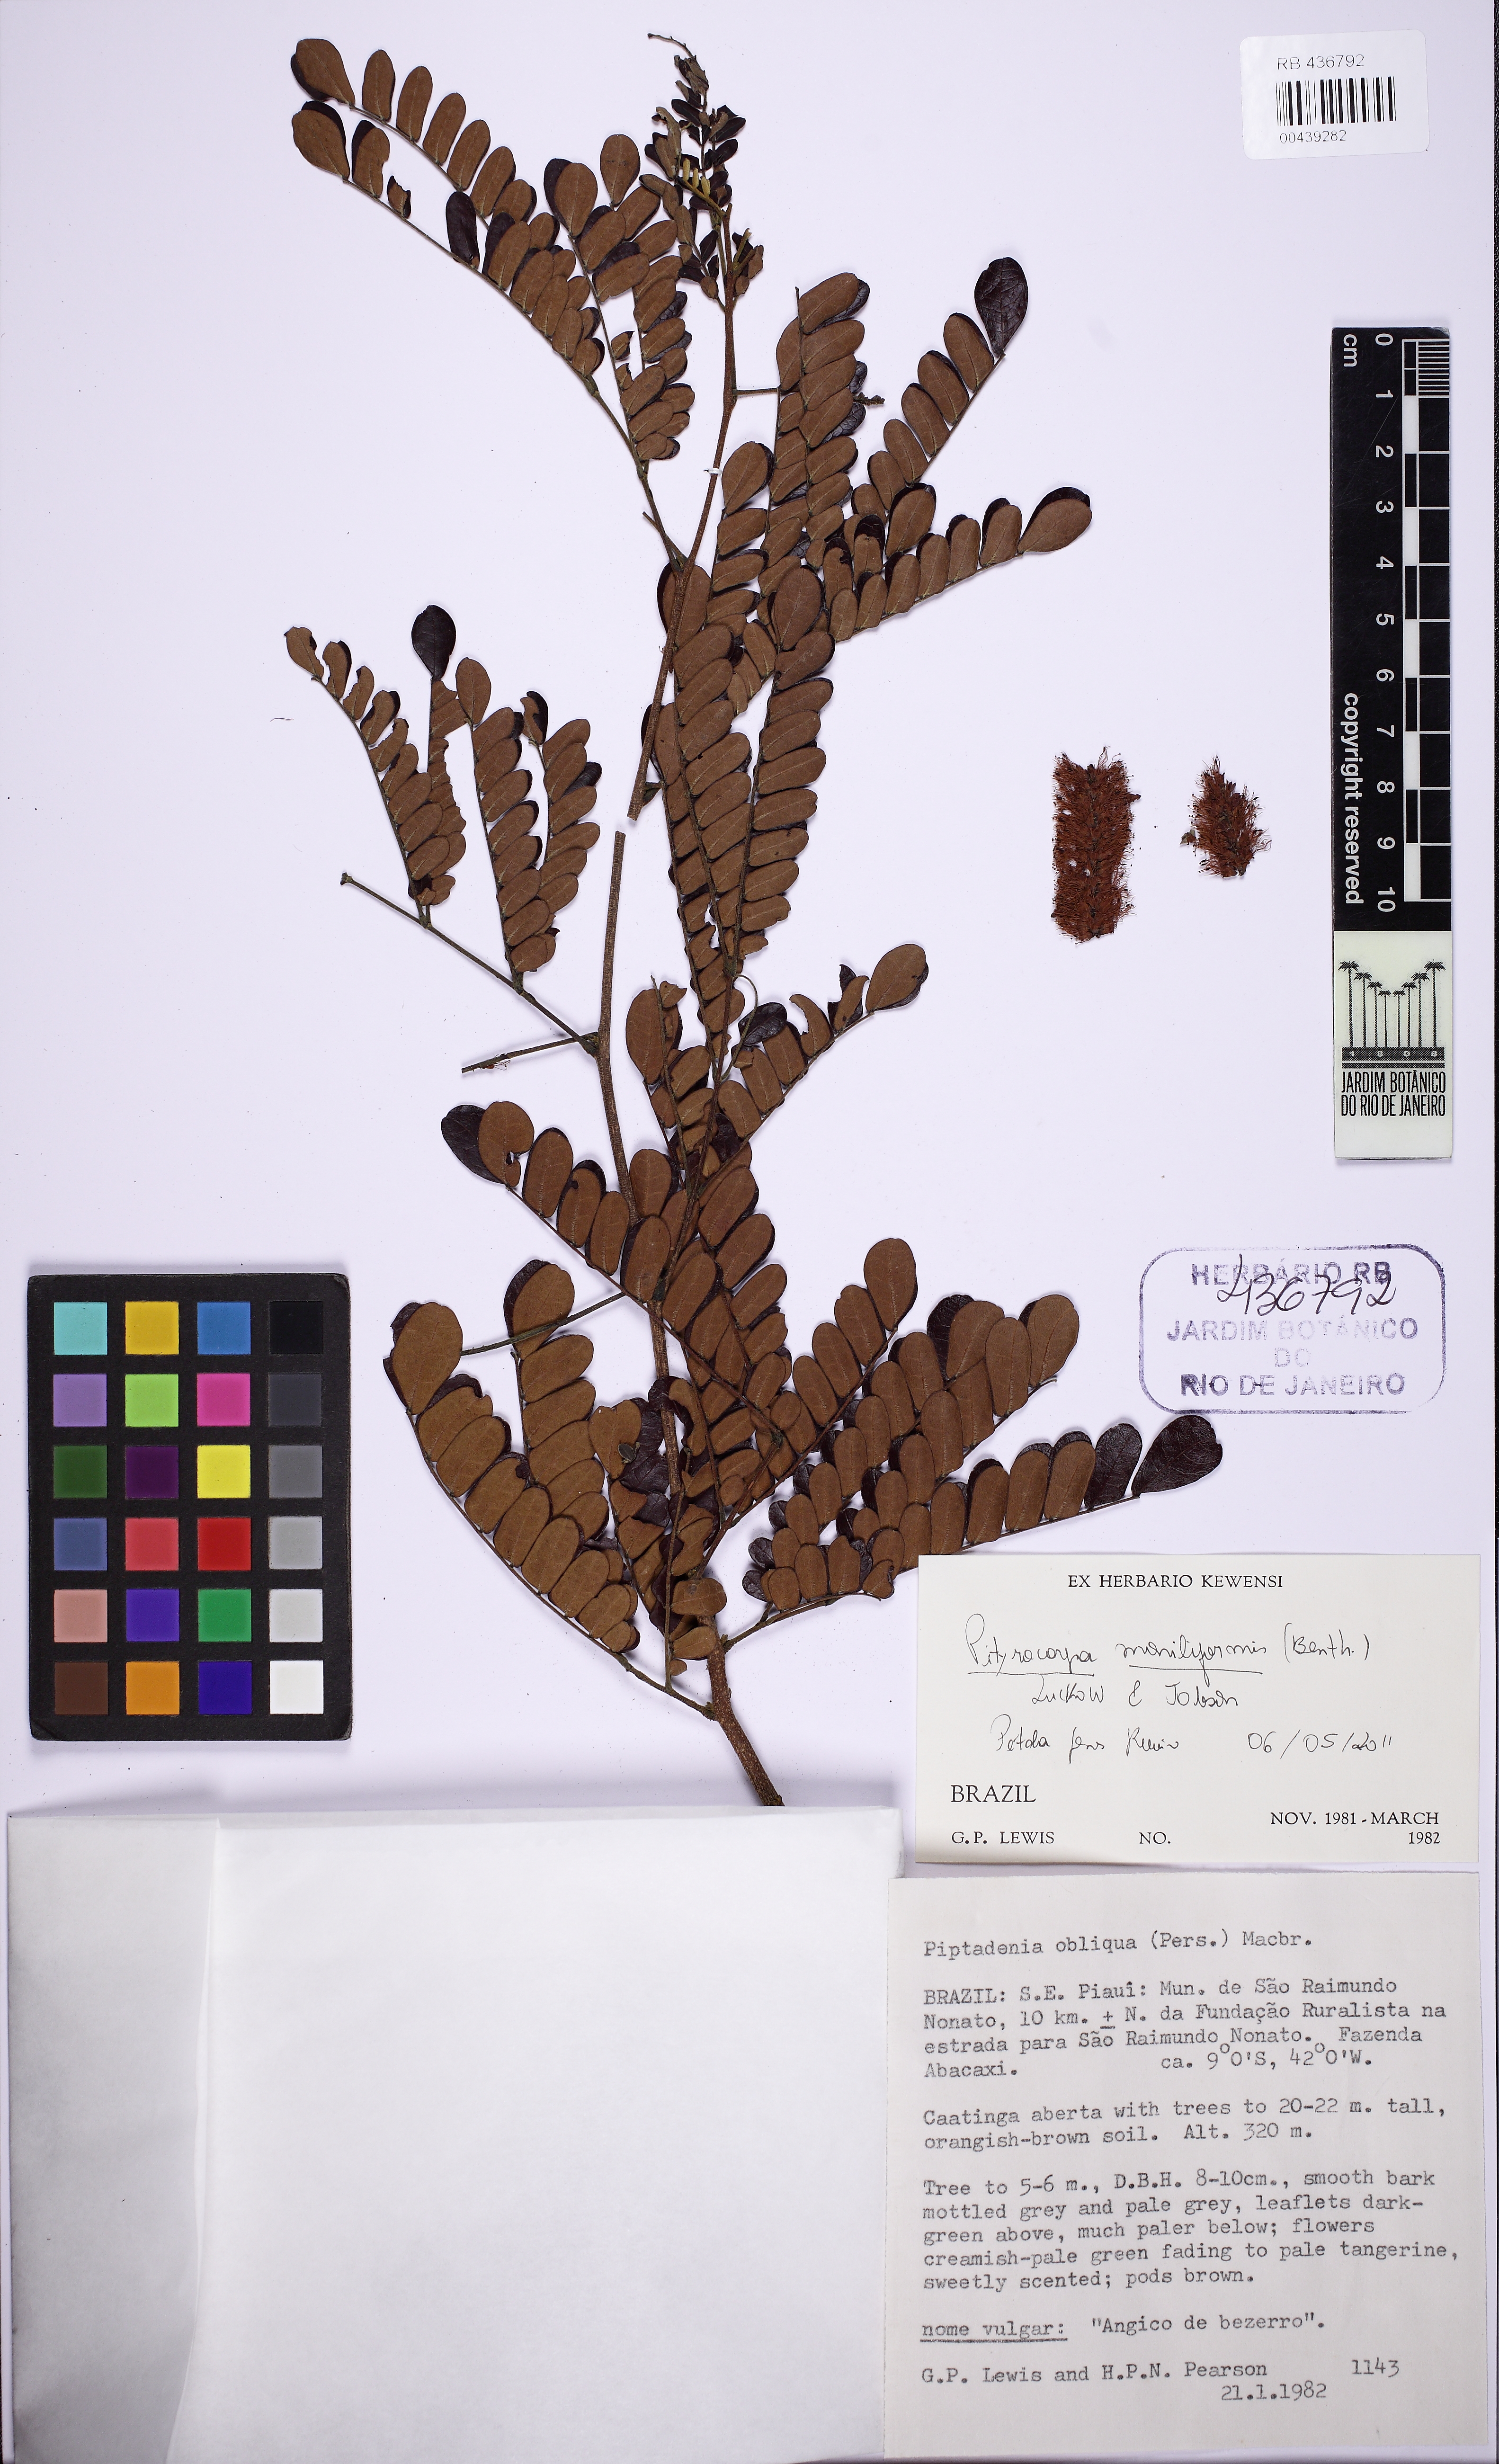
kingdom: Plantae
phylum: Tracheophyta
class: Magnoliopsida
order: Fabales
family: Fabaceae
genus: Pityrocarpa
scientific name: Pityrocarpa moniliformis
